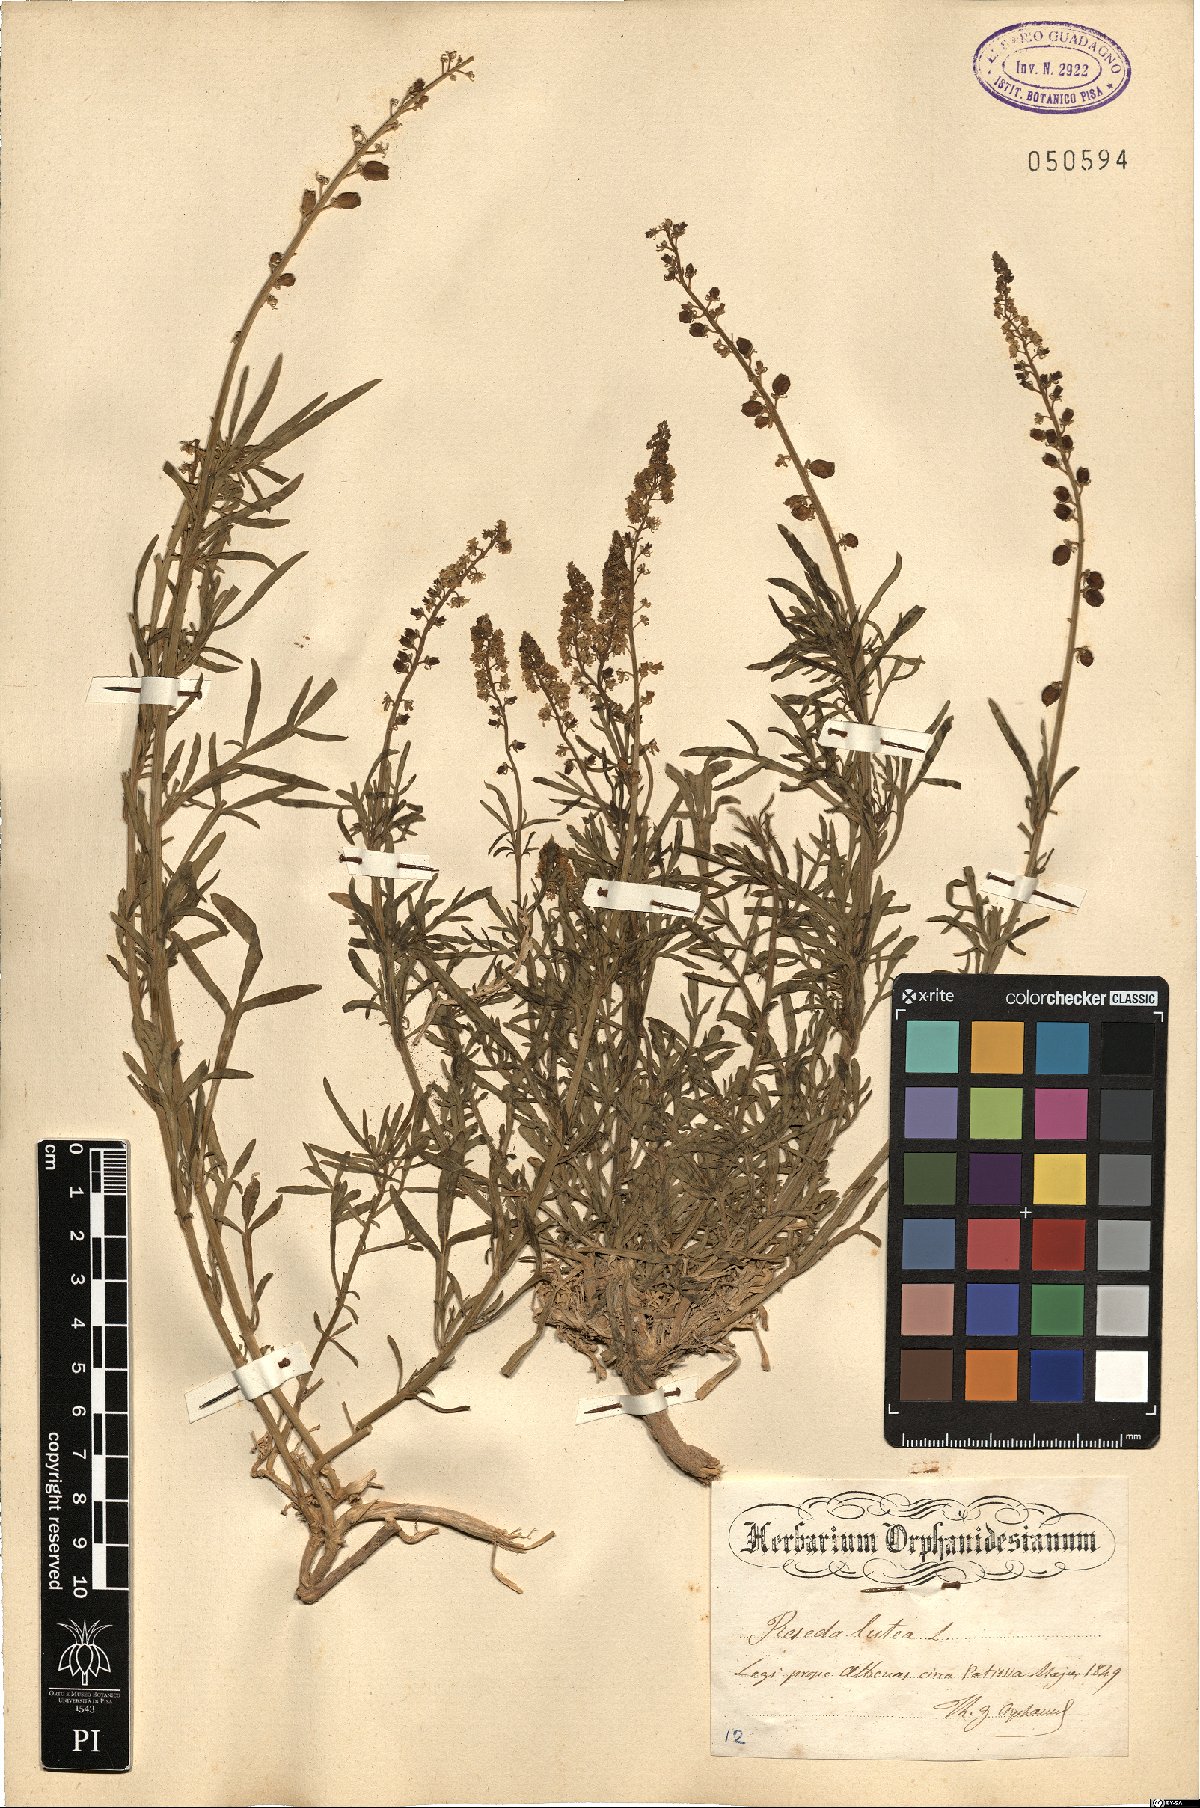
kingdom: Plantae
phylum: Tracheophyta
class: Magnoliopsida
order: Brassicales
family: Resedaceae
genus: Reseda
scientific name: Reseda lutea
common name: Wild mignonette
